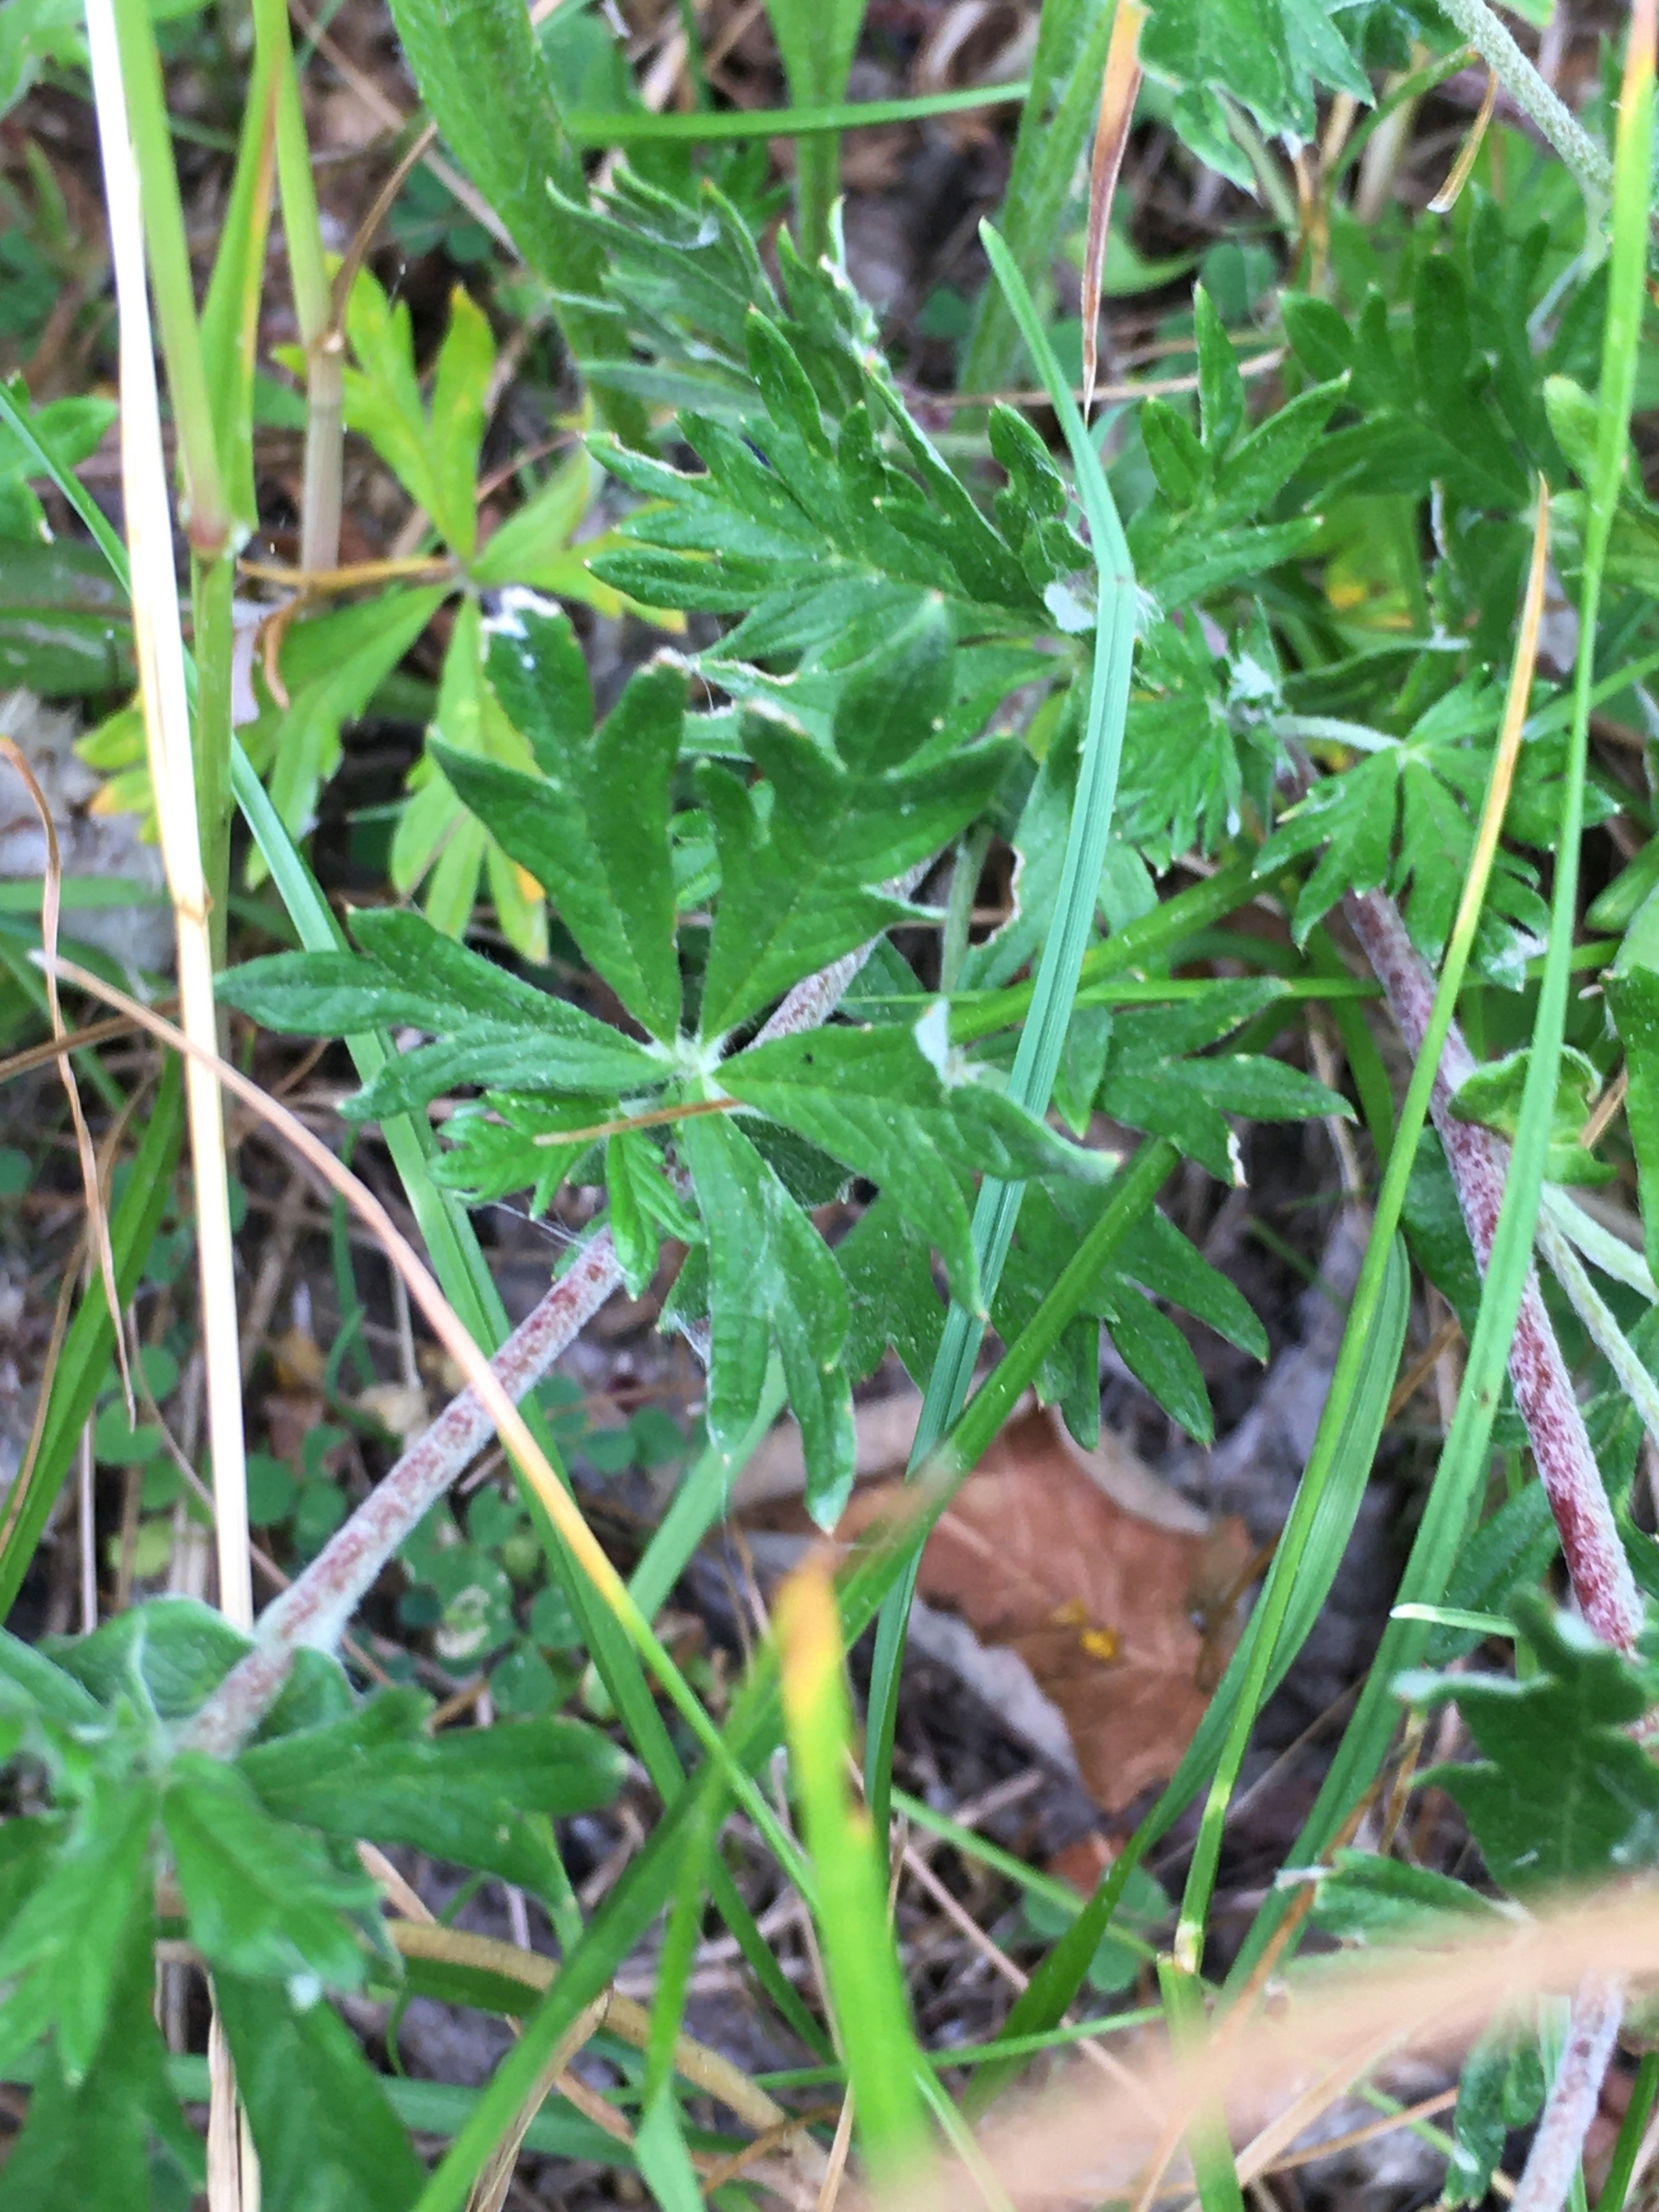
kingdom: Plantae
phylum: Tracheophyta
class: Magnoliopsida
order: Rosales
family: Rosaceae
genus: Potentilla
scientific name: Potentilla argentea
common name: Sølv-potentil
